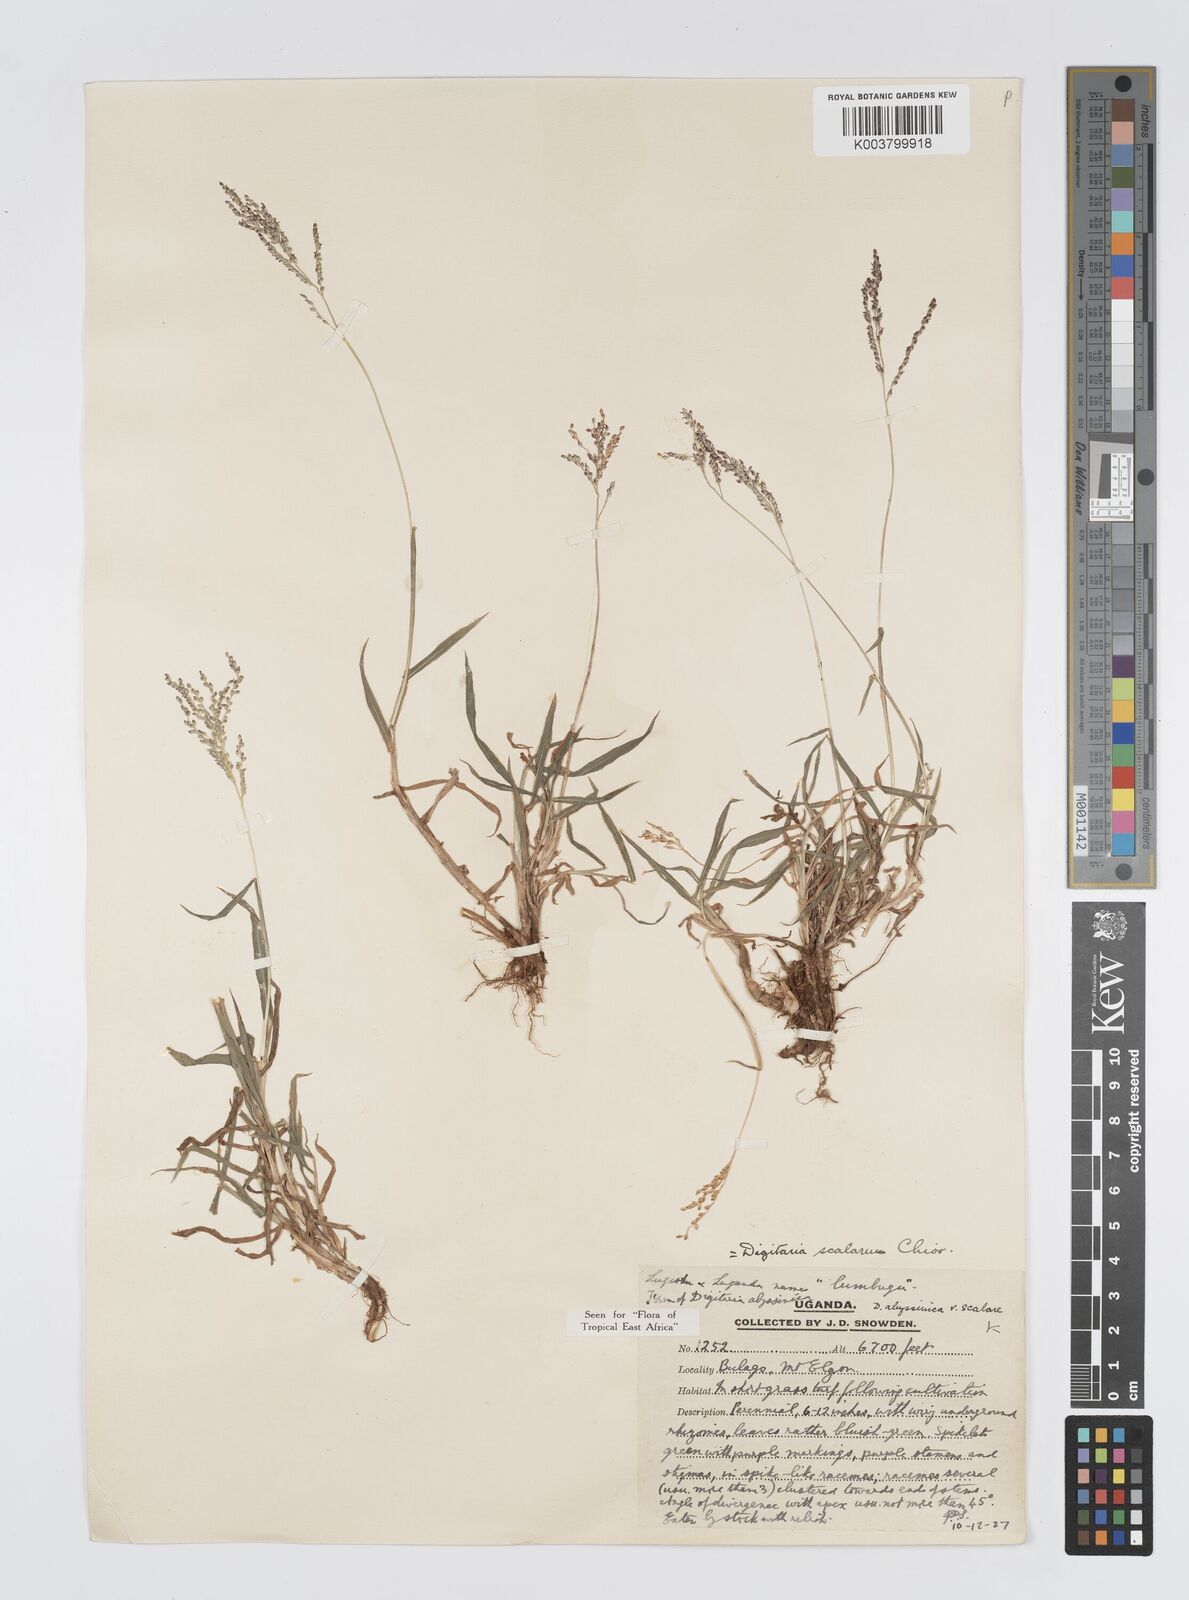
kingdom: Plantae
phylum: Tracheophyta
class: Liliopsida
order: Poales
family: Poaceae
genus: Digitaria
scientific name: Digitaria abyssinica
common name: African couchgrass
